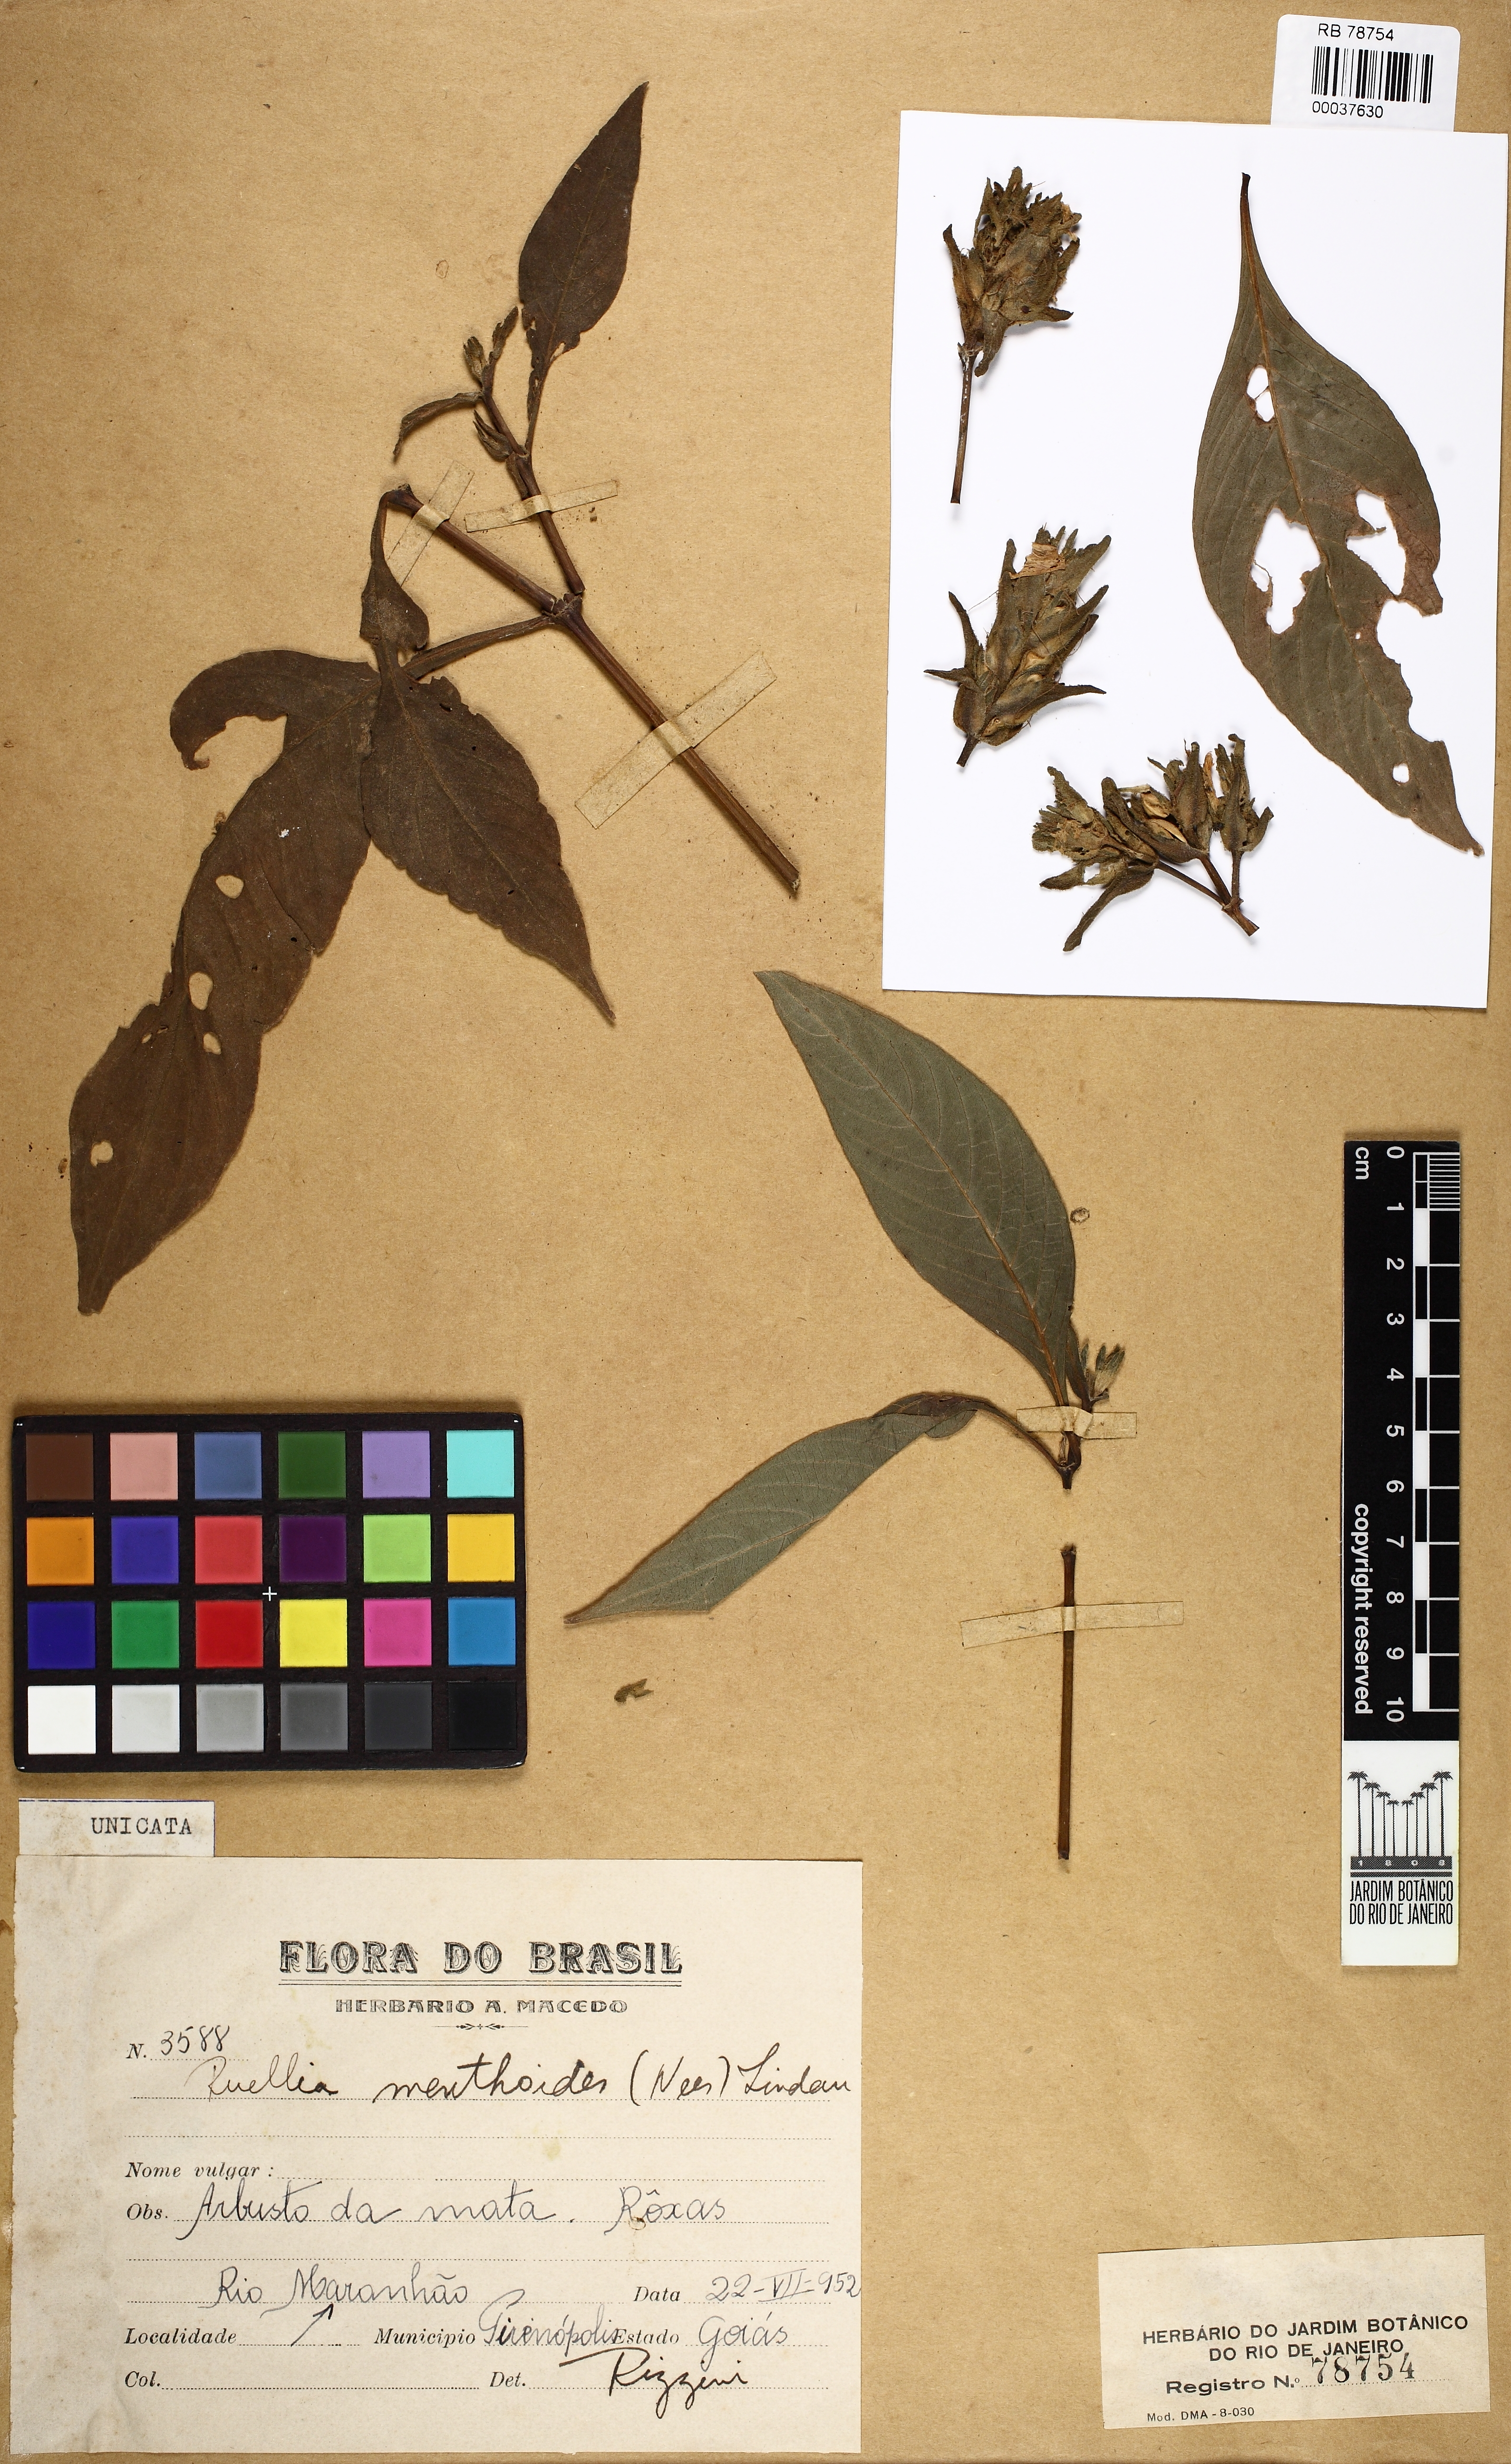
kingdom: Plantae
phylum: Tracheophyta
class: Magnoliopsida
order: Lamiales
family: Acanthaceae
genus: Ruellia
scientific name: Ruellia menthoides
